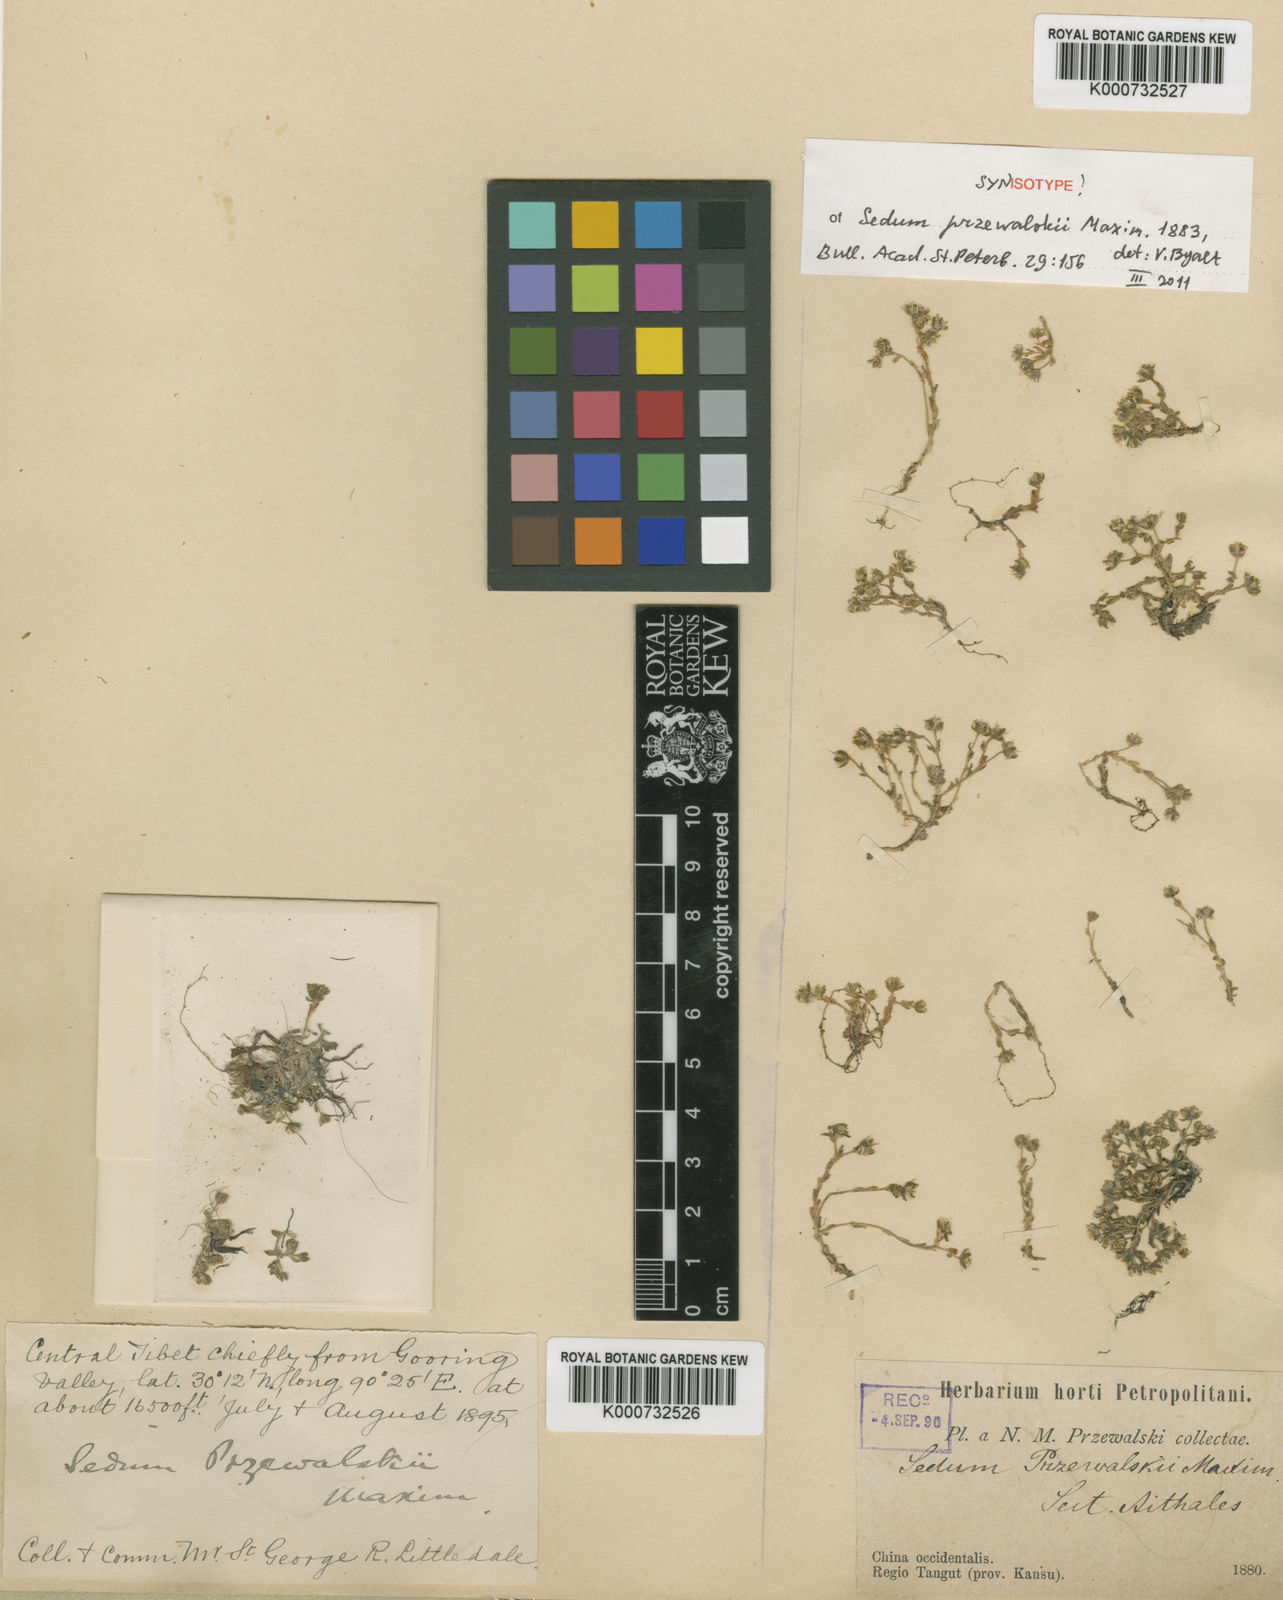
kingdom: Plantae
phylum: Tracheophyta
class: Magnoliopsida
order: Saxifragales
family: Crassulaceae
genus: Sedum
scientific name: Sedum przewalskii
